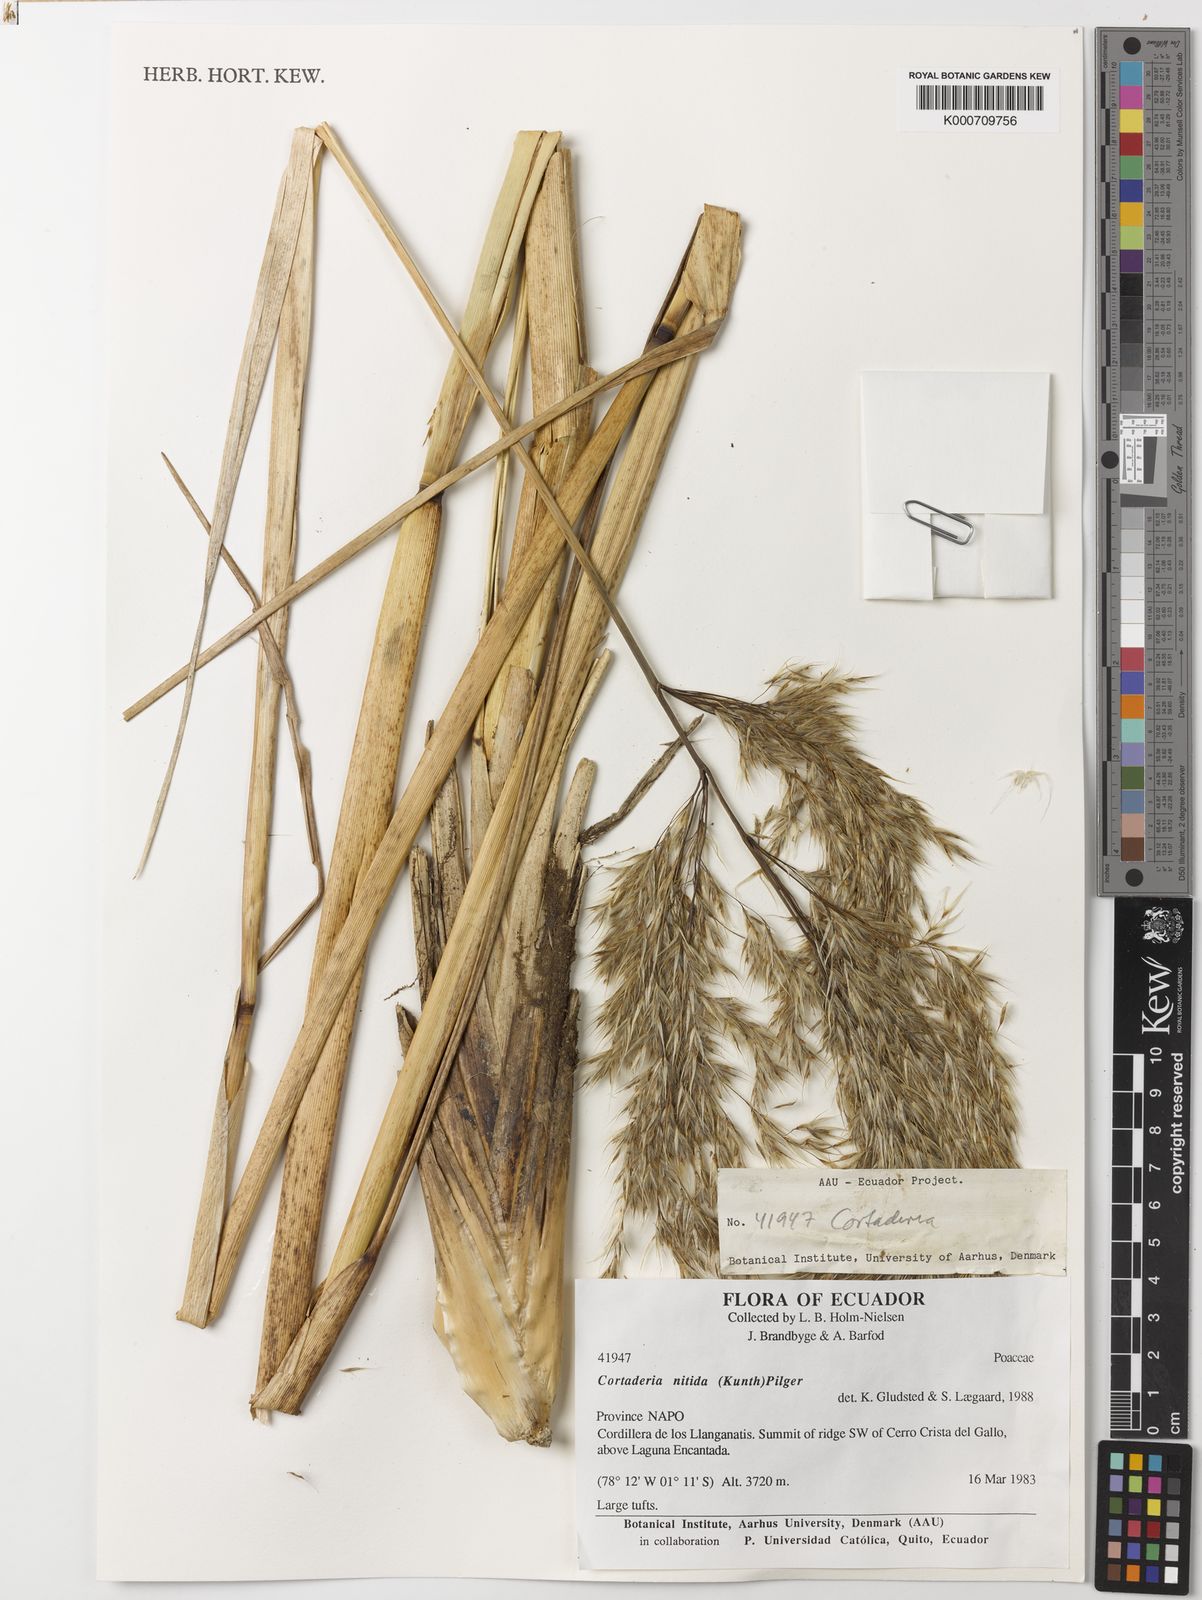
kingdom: Plantae
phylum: Tracheophyta
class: Liliopsida
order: Poales
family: Poaceae
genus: Cortaderia
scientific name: Cortaderia nitida
